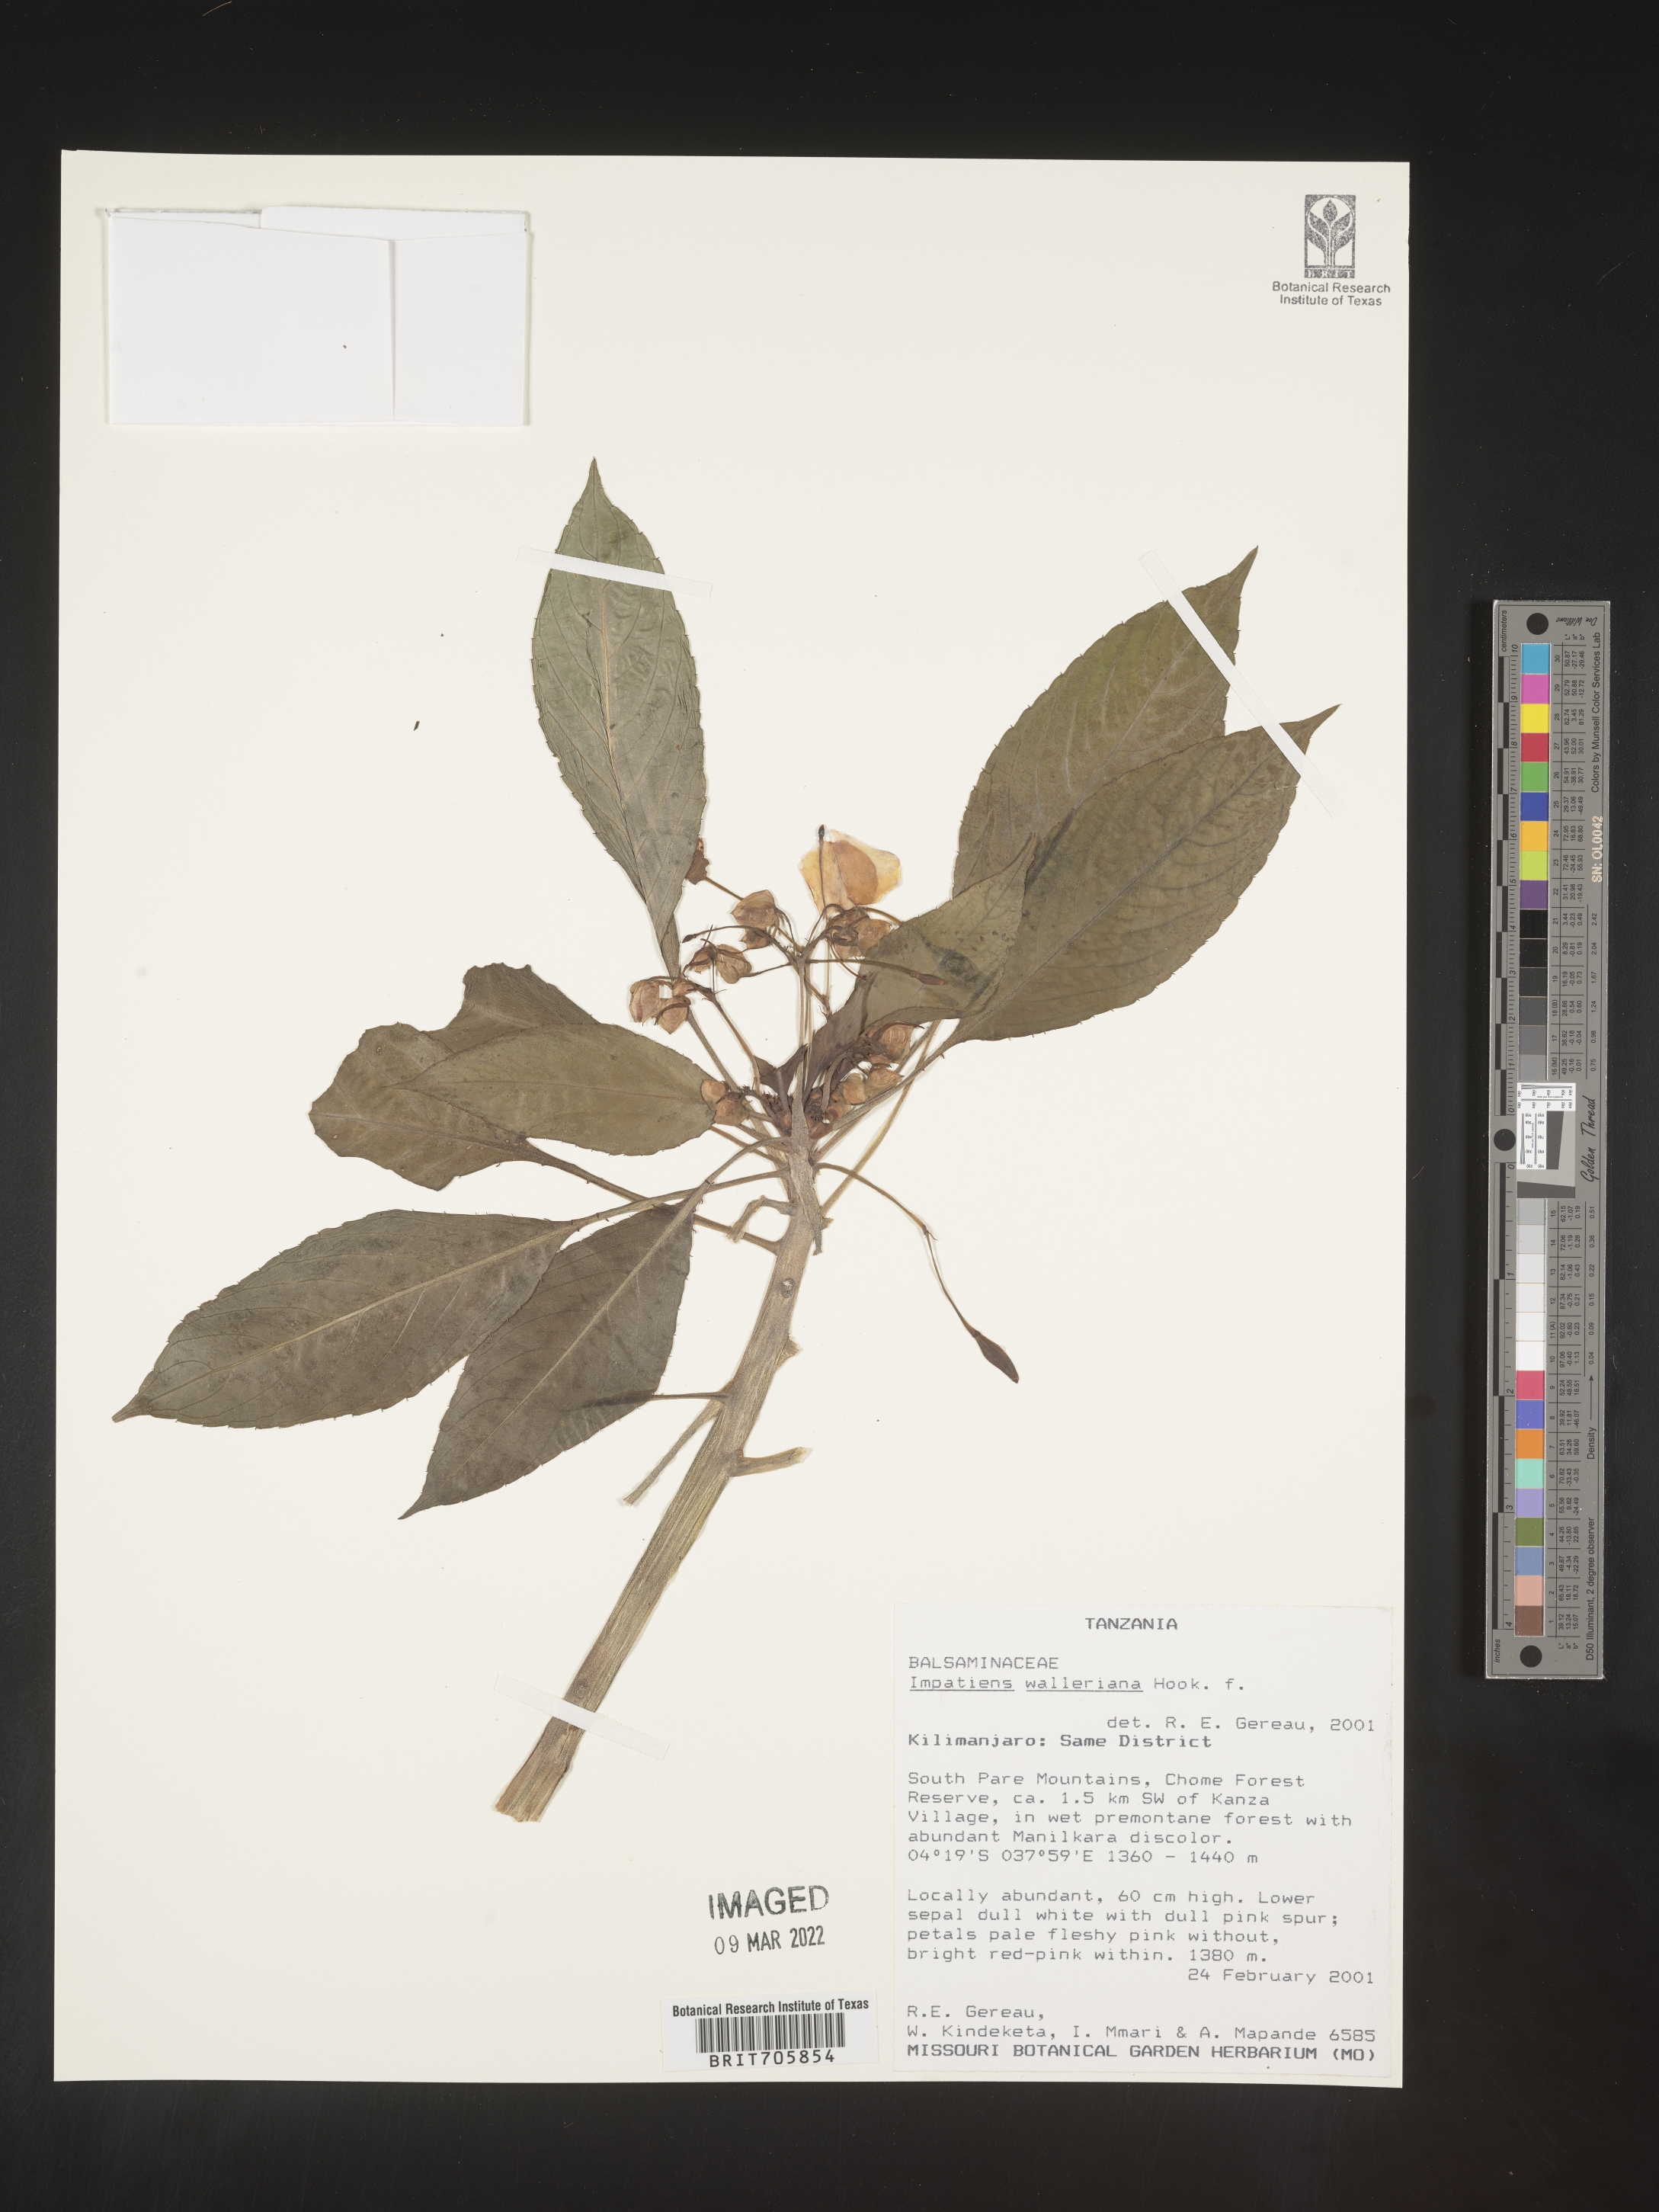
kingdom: Plantae
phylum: Tracheophyta
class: Magnoliopsida
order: Ericales
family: Balsaminaceae
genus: Impatiens
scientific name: Impatiens
